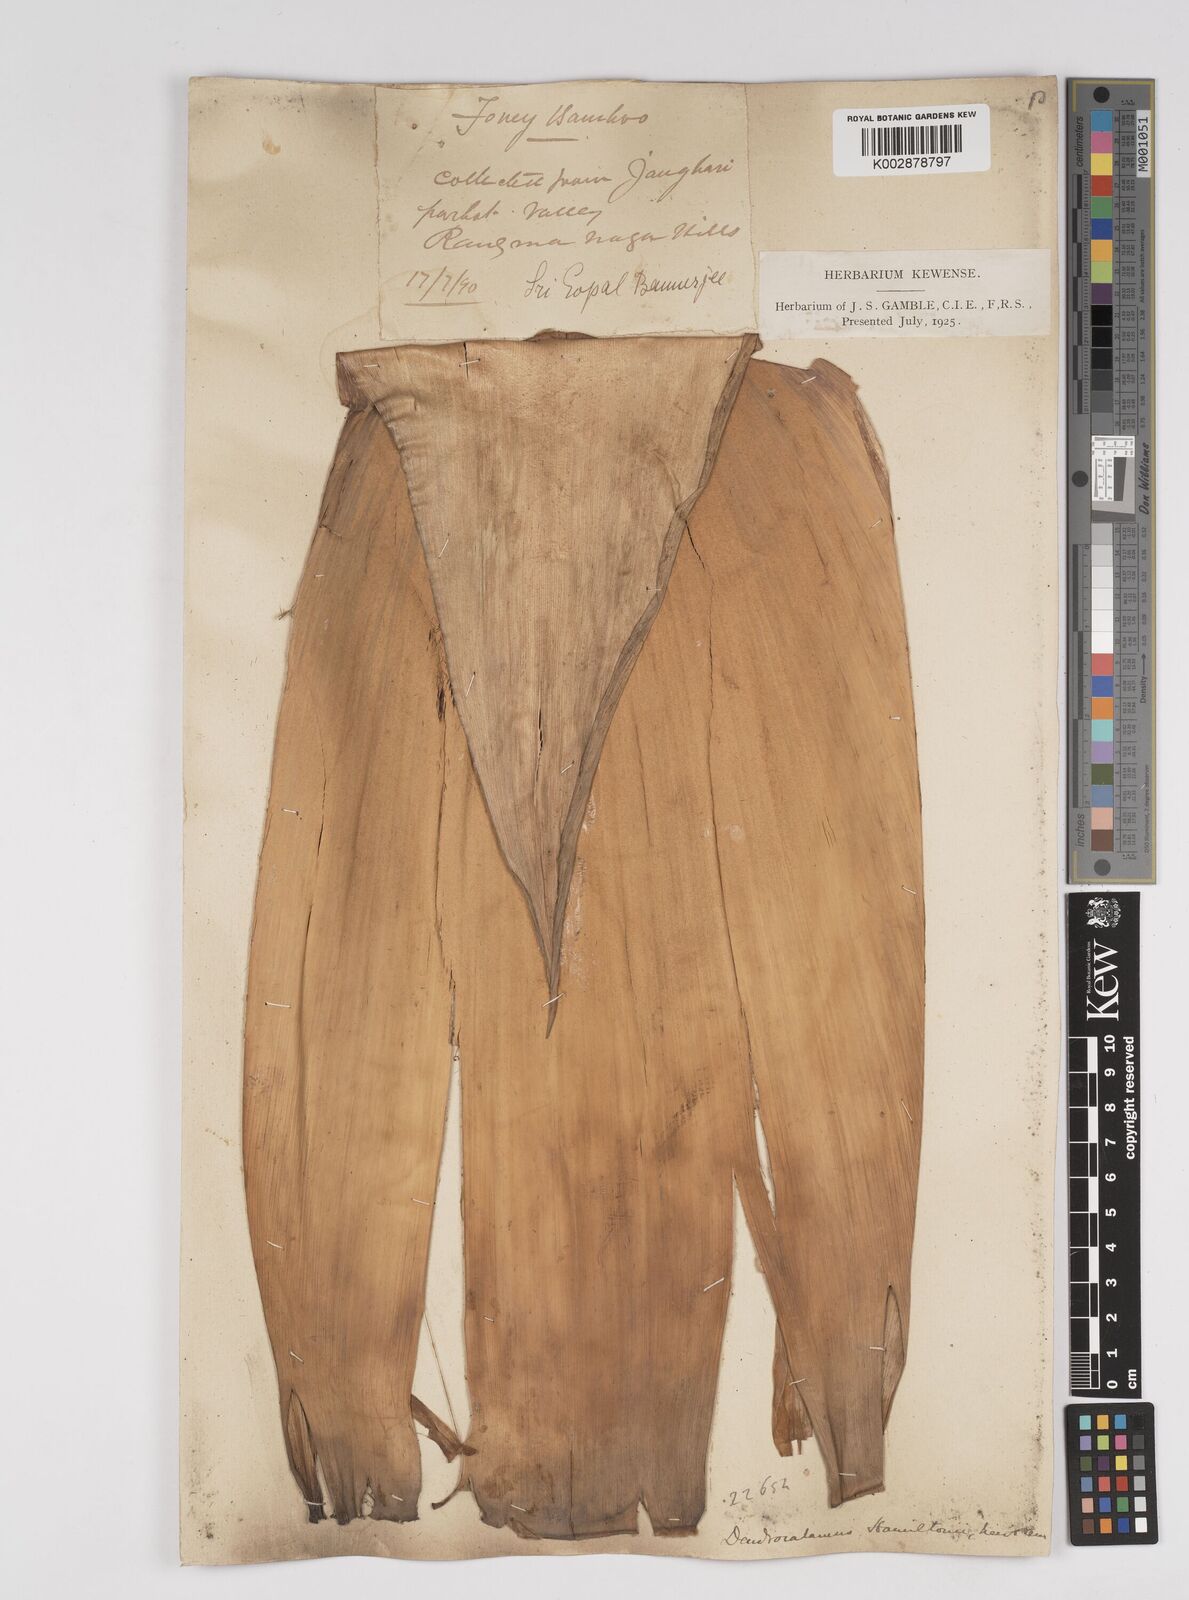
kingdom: Plantae
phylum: Tracheophyta
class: Liliopsida
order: Poales
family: Poaceae
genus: Dendrocalamus
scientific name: Dendrocalamus hamiltonii
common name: Tama bamboo
